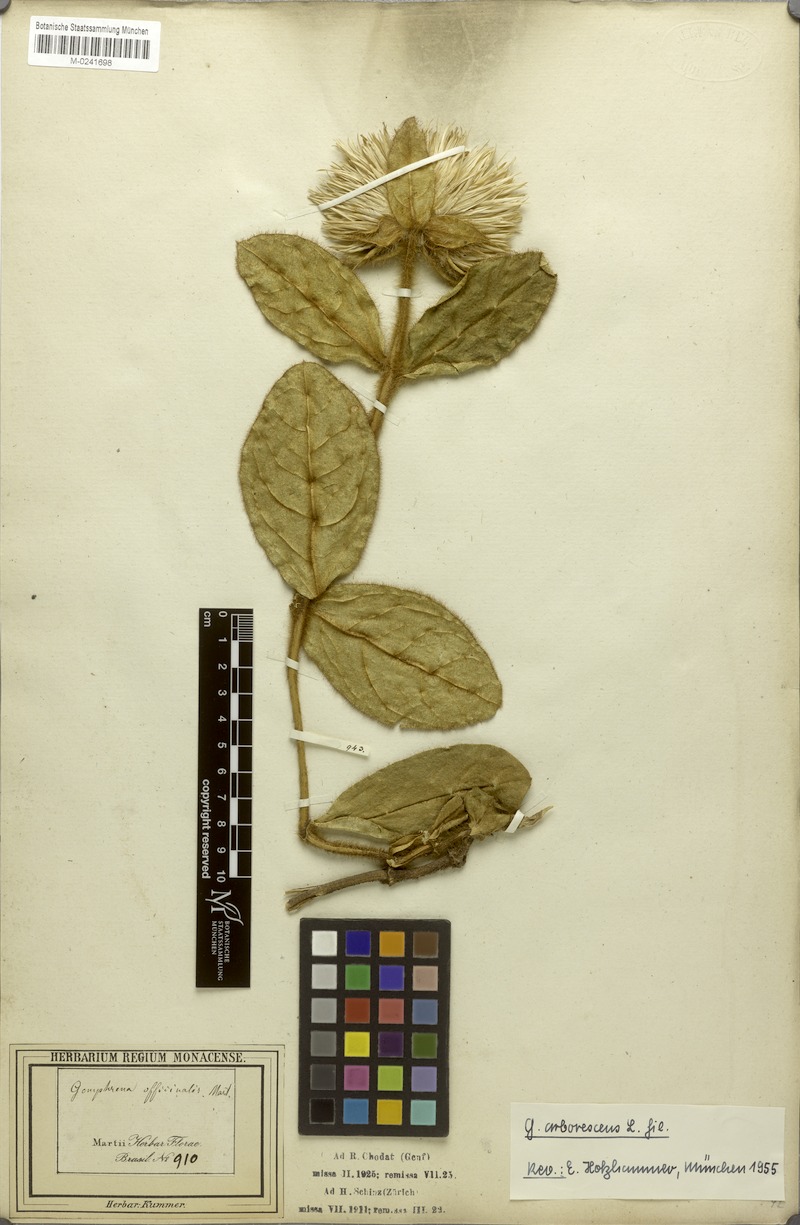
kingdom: Plantae
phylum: Tracheophyta
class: Magnoliopsida
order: Caryophyllales
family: Amaranthaceae
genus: Gomphrena
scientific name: Gomphrena arborescens
